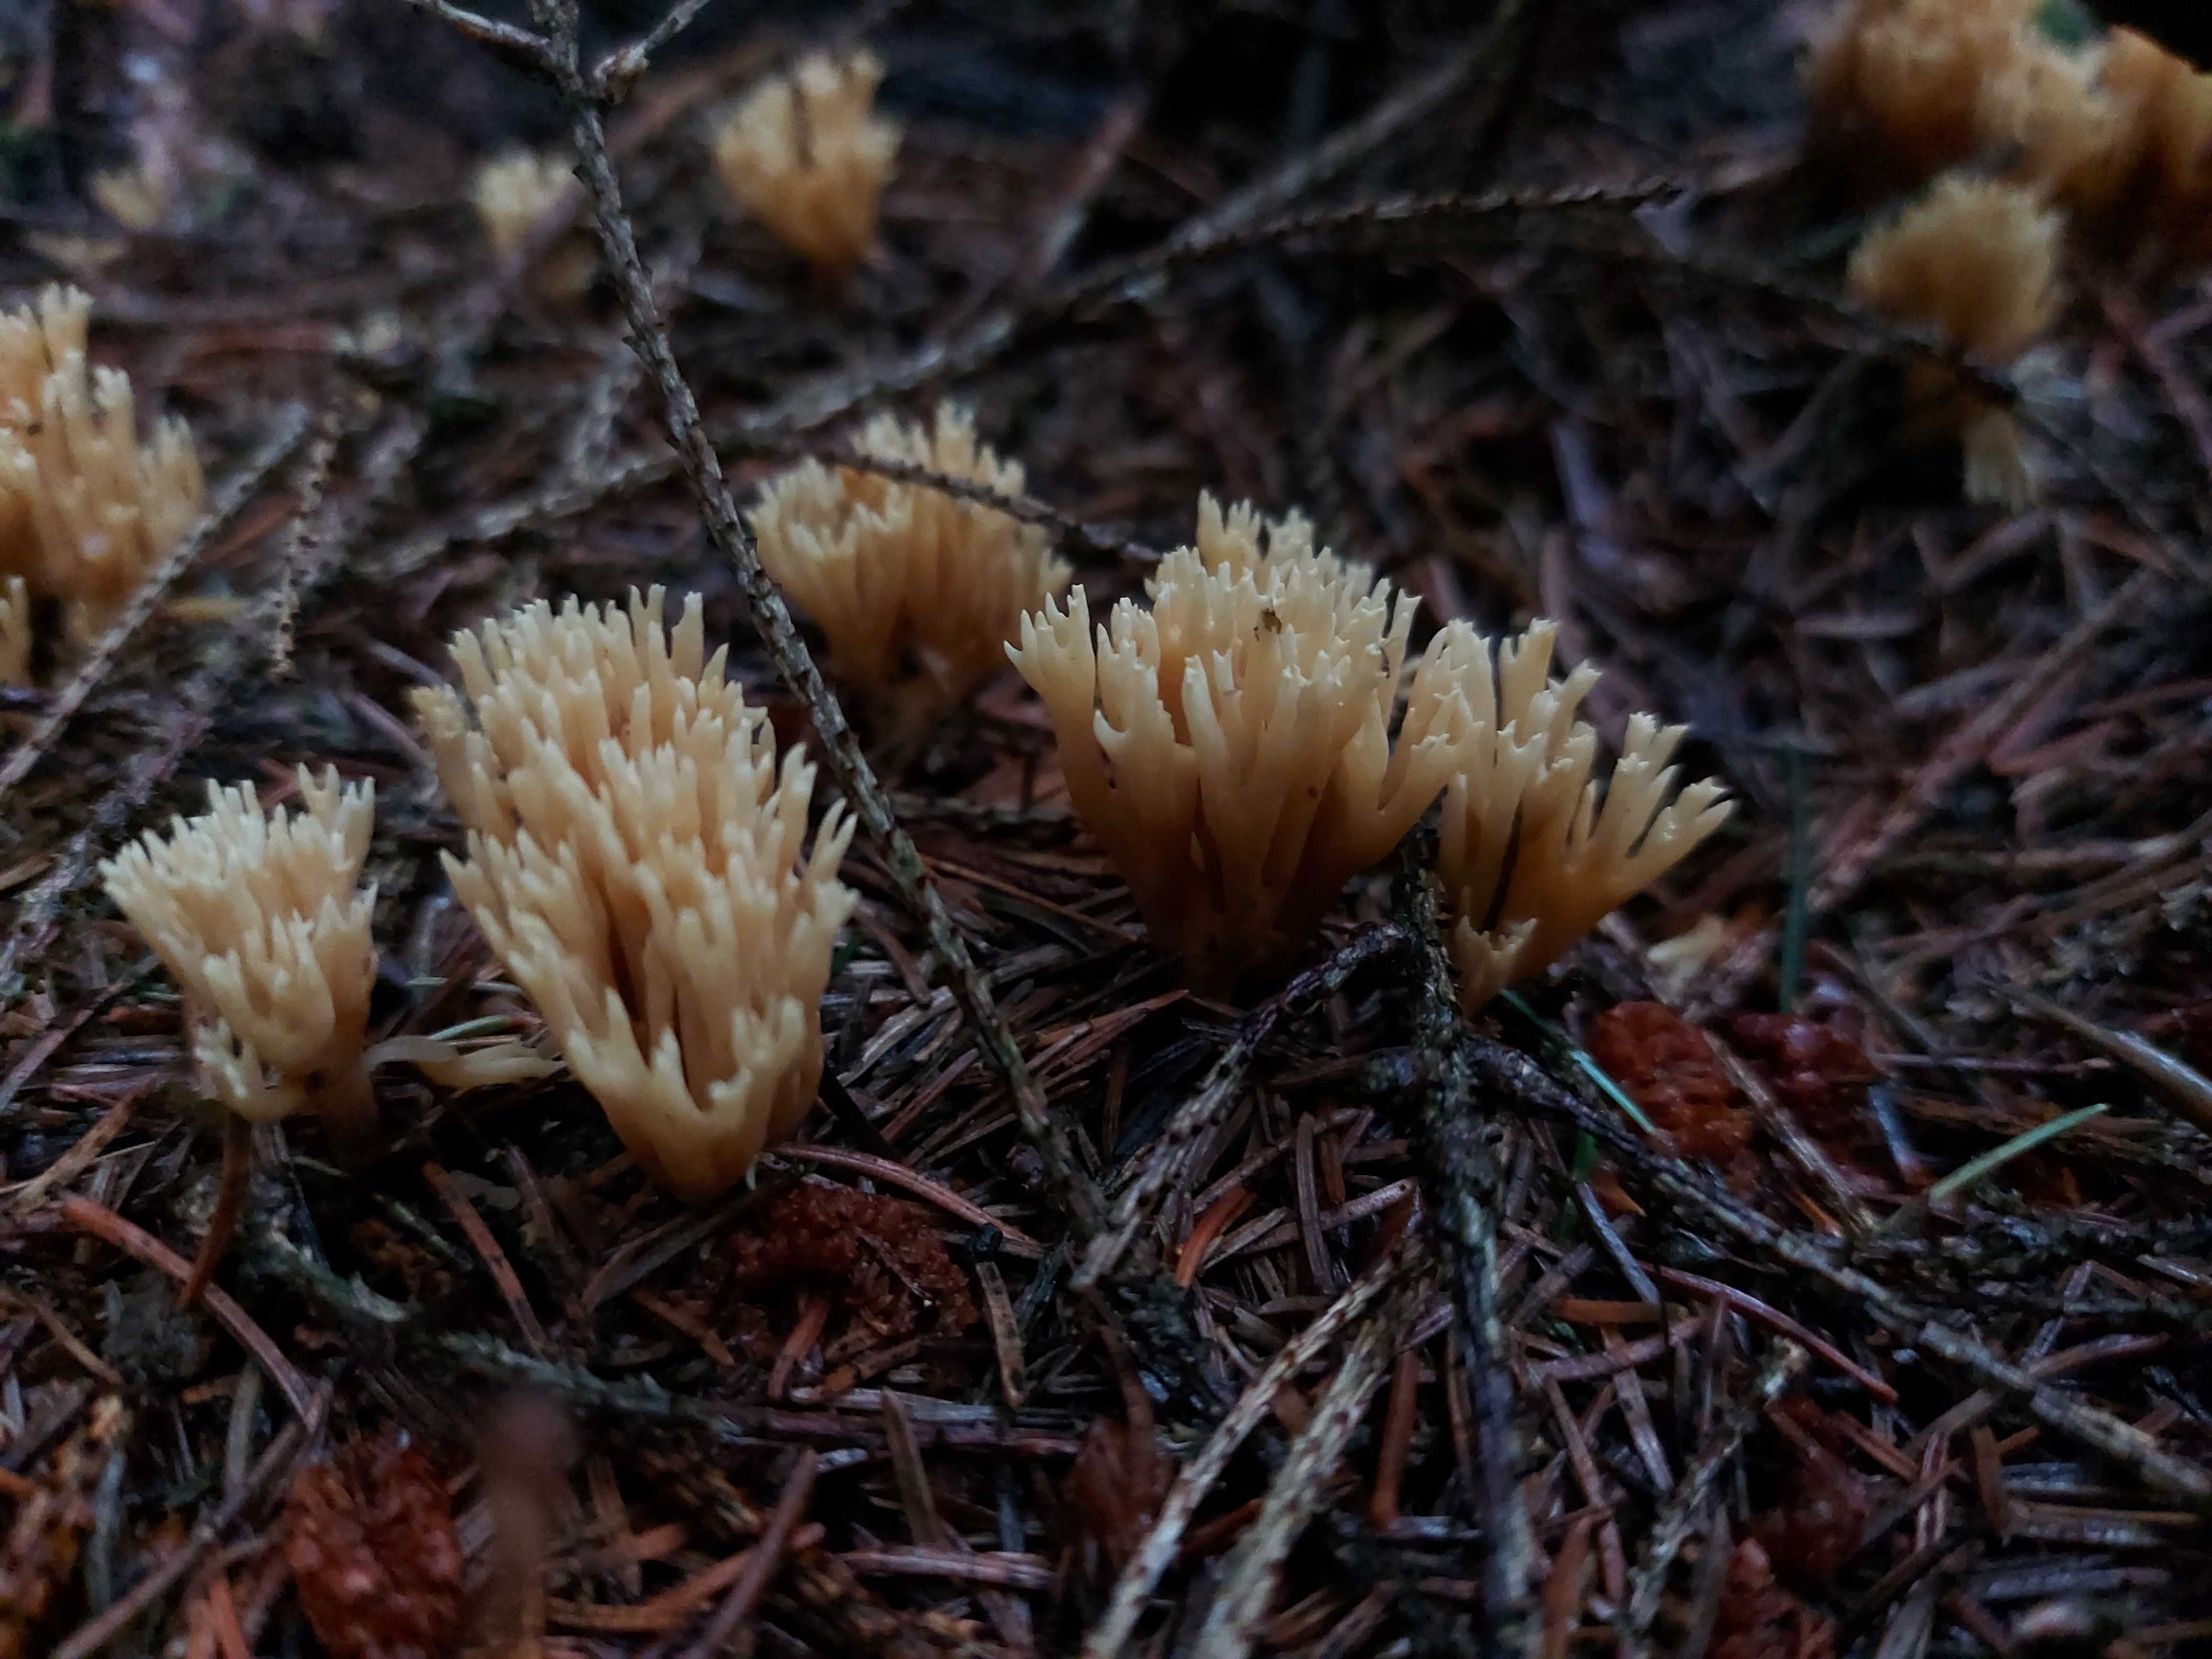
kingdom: Fungi
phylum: Basidiomycota
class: Agaricomycetes
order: Gomphales
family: Gomphaceae
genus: Phaeoclavulina
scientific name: Phaeoclavulina eumorpha
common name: gran-koralsvamp
